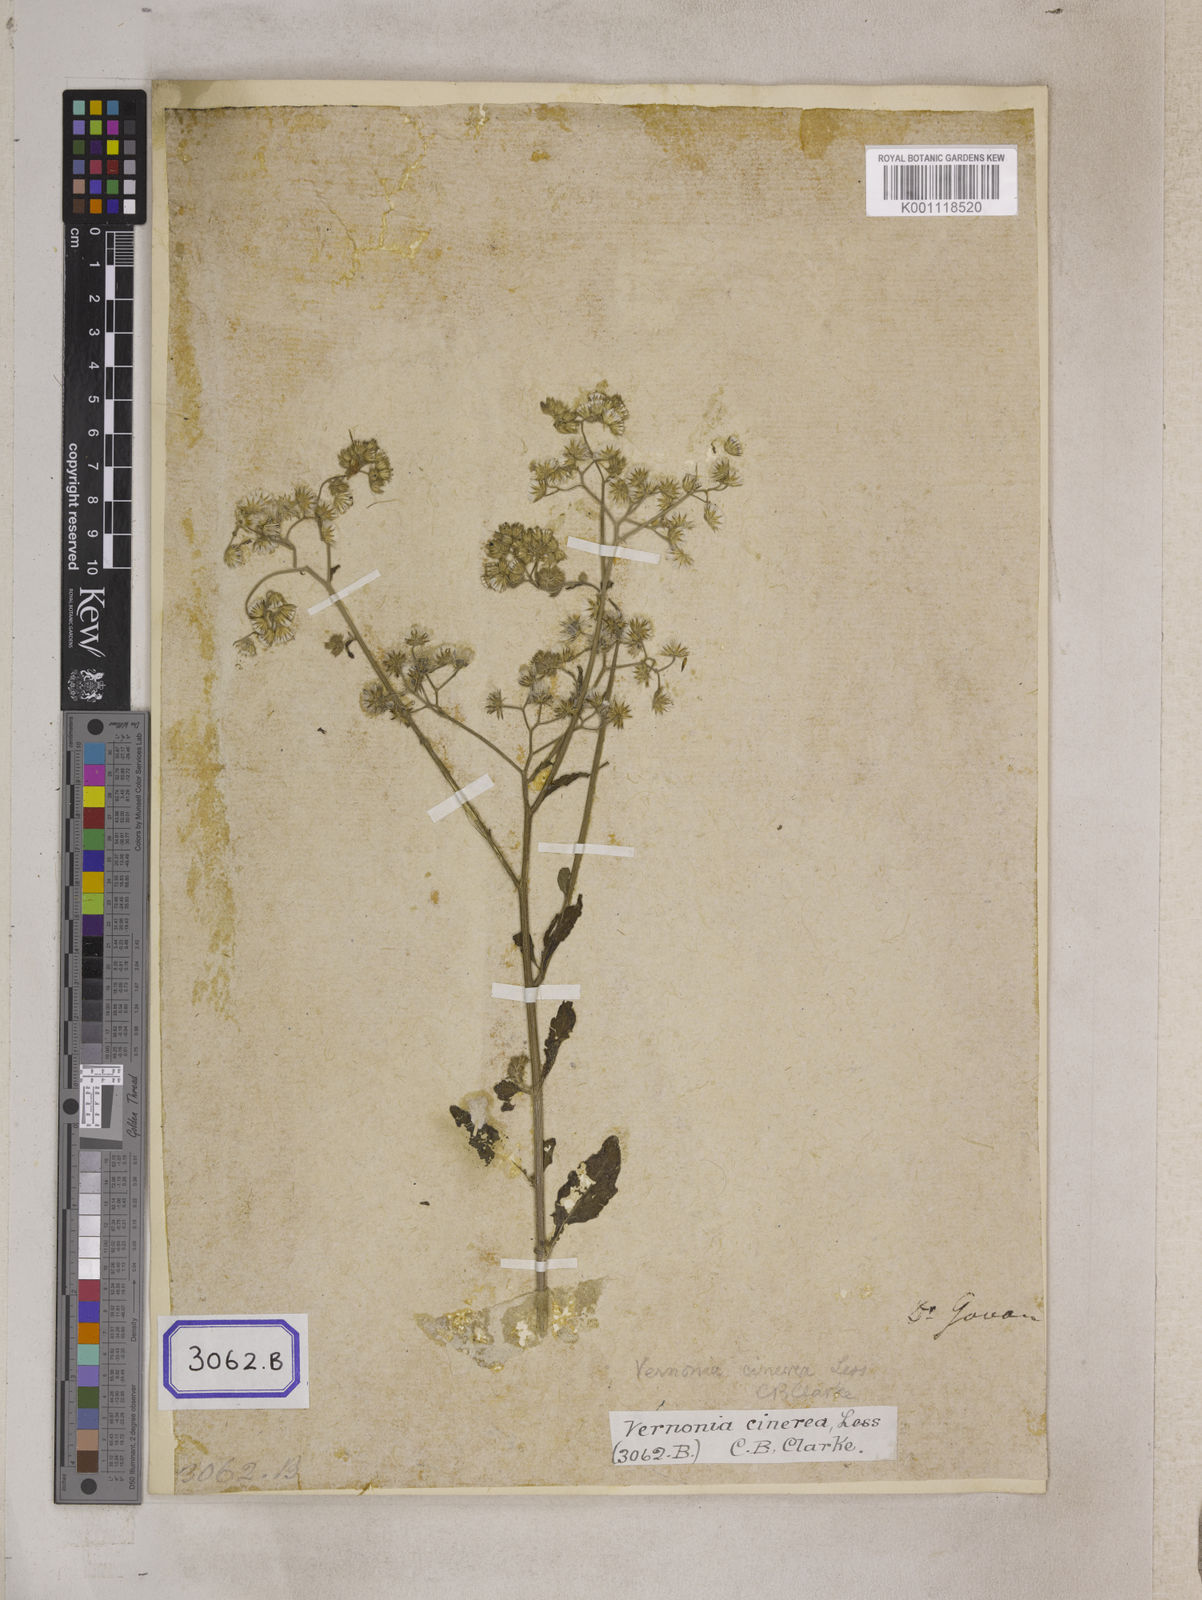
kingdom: Plantae
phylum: Tracheophyta
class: Magnoliopsida
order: Asterales
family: Asteraceae
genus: Cyanthillium
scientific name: Cyanthillium cinereum
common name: Little ironweed
